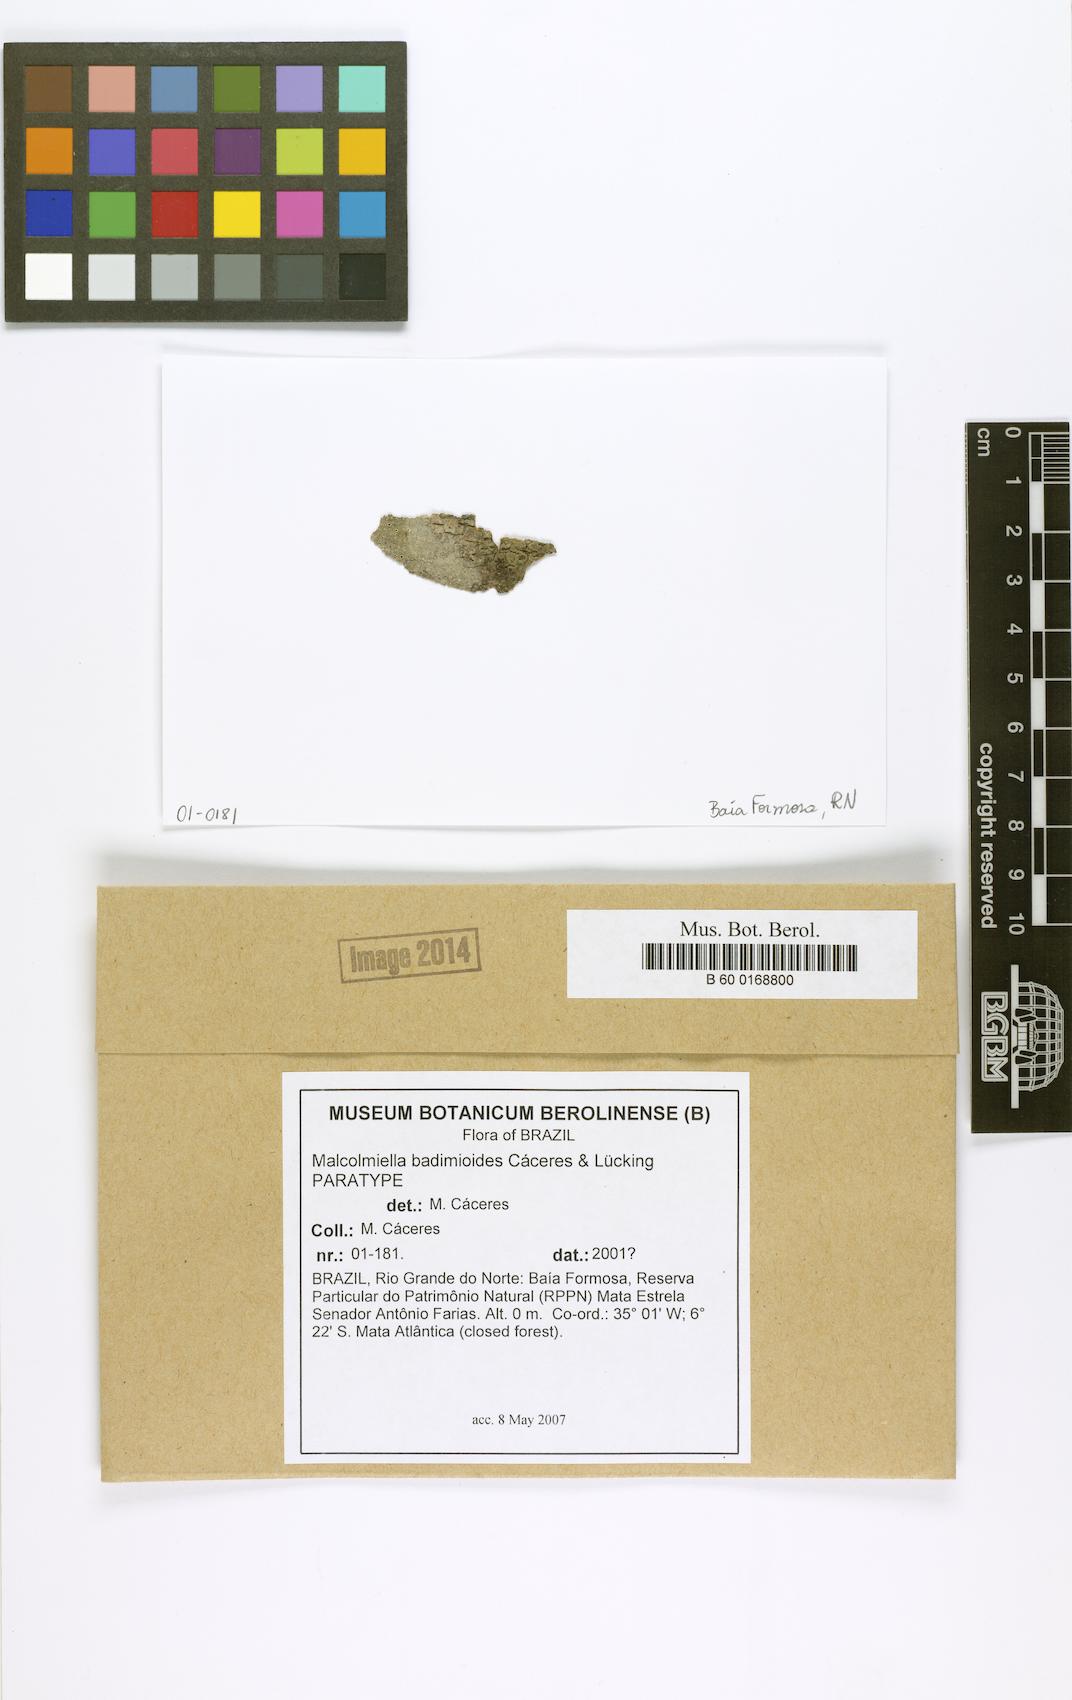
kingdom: Fungi
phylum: Ascomycota
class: Lecanoromycetes
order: Lecanorales
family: Malmideaceae
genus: Malmidea
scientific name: Malmidea badimioides
